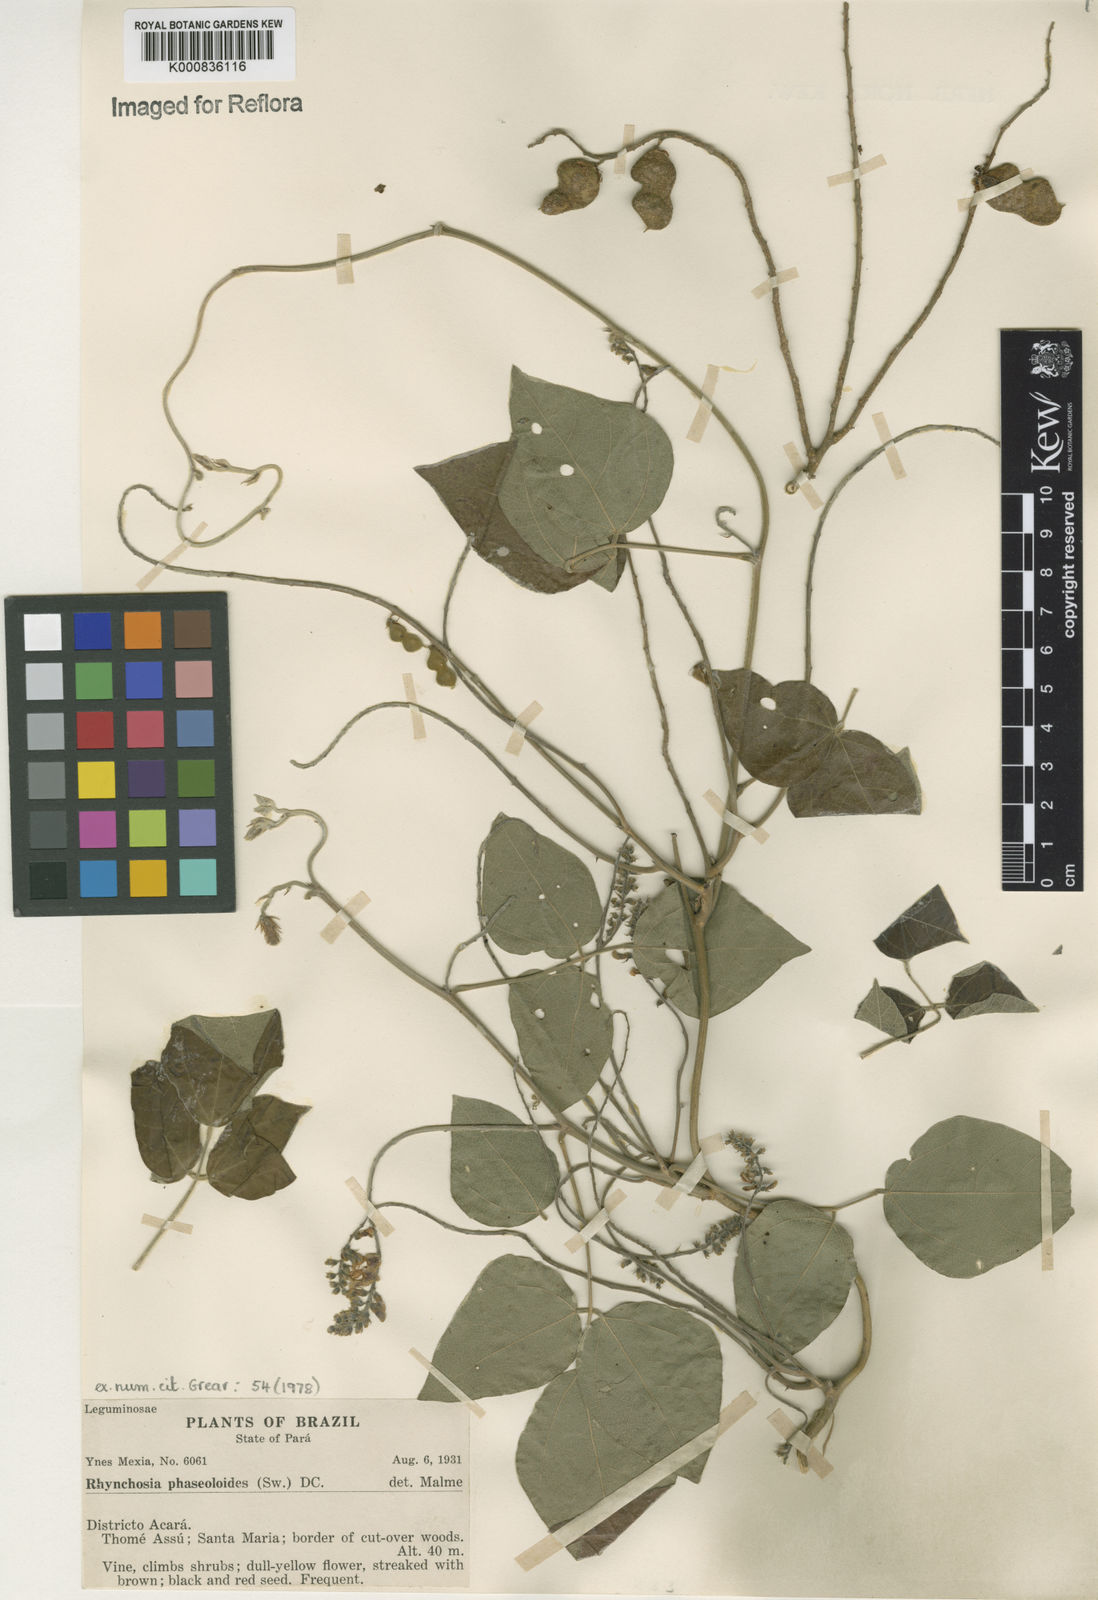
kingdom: Plantae
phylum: Tracheophyta
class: Magnoliopsida
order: Fabales
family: Fabaceae
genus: Rhynchosia
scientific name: Rhynchosia phaseoloides
